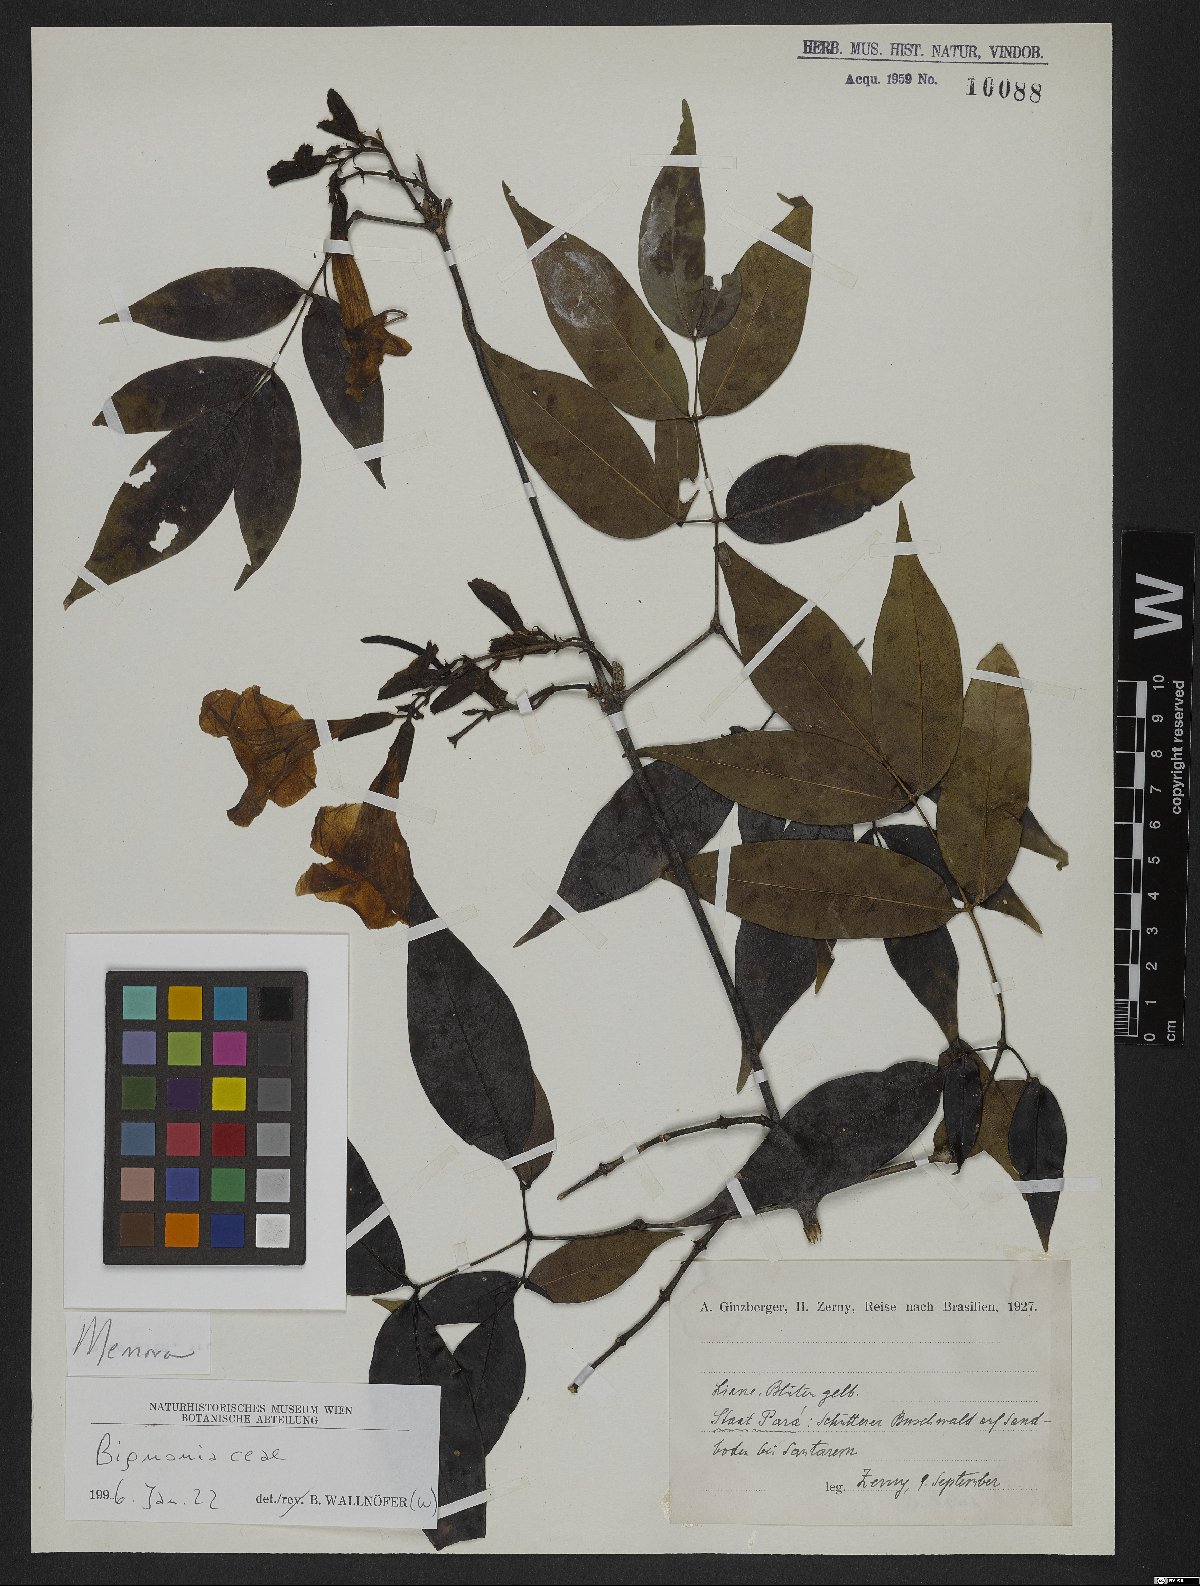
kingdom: Plantae
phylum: Tracheophyta
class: Magnoliopsida
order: Lamiales
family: Bignoniaceae
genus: Adenocalymma
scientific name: Adenocalymma
